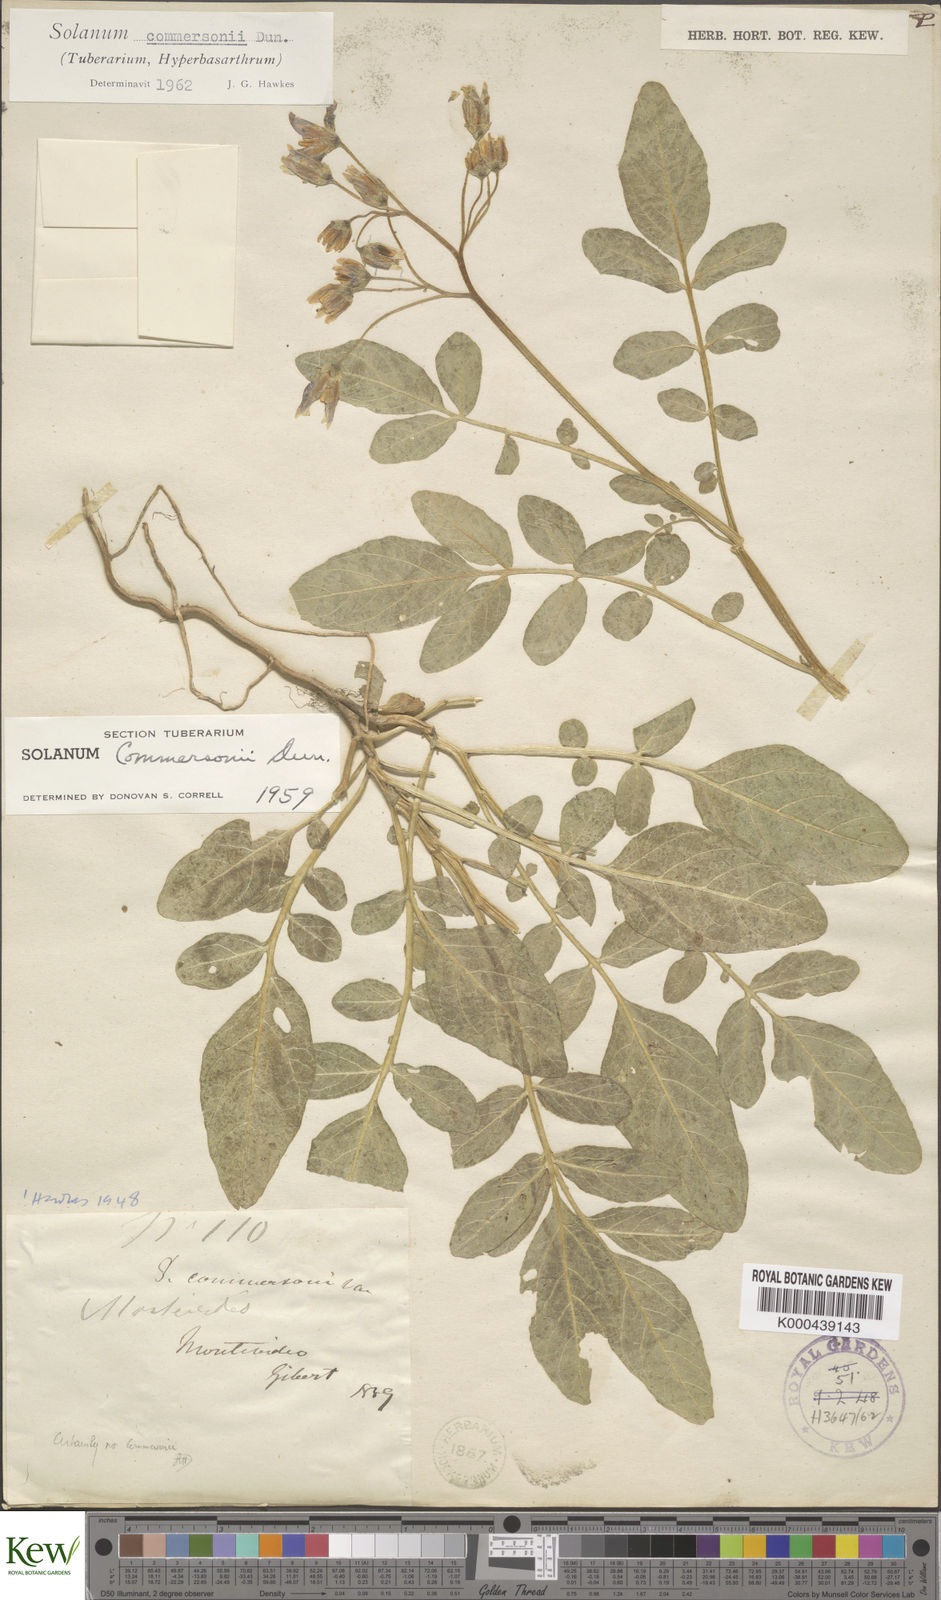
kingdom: Plantae
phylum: Tracheophyta
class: Magnoliopsida
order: Solanales
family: Solanaceae
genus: Solanum
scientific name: Solanum commersonii
